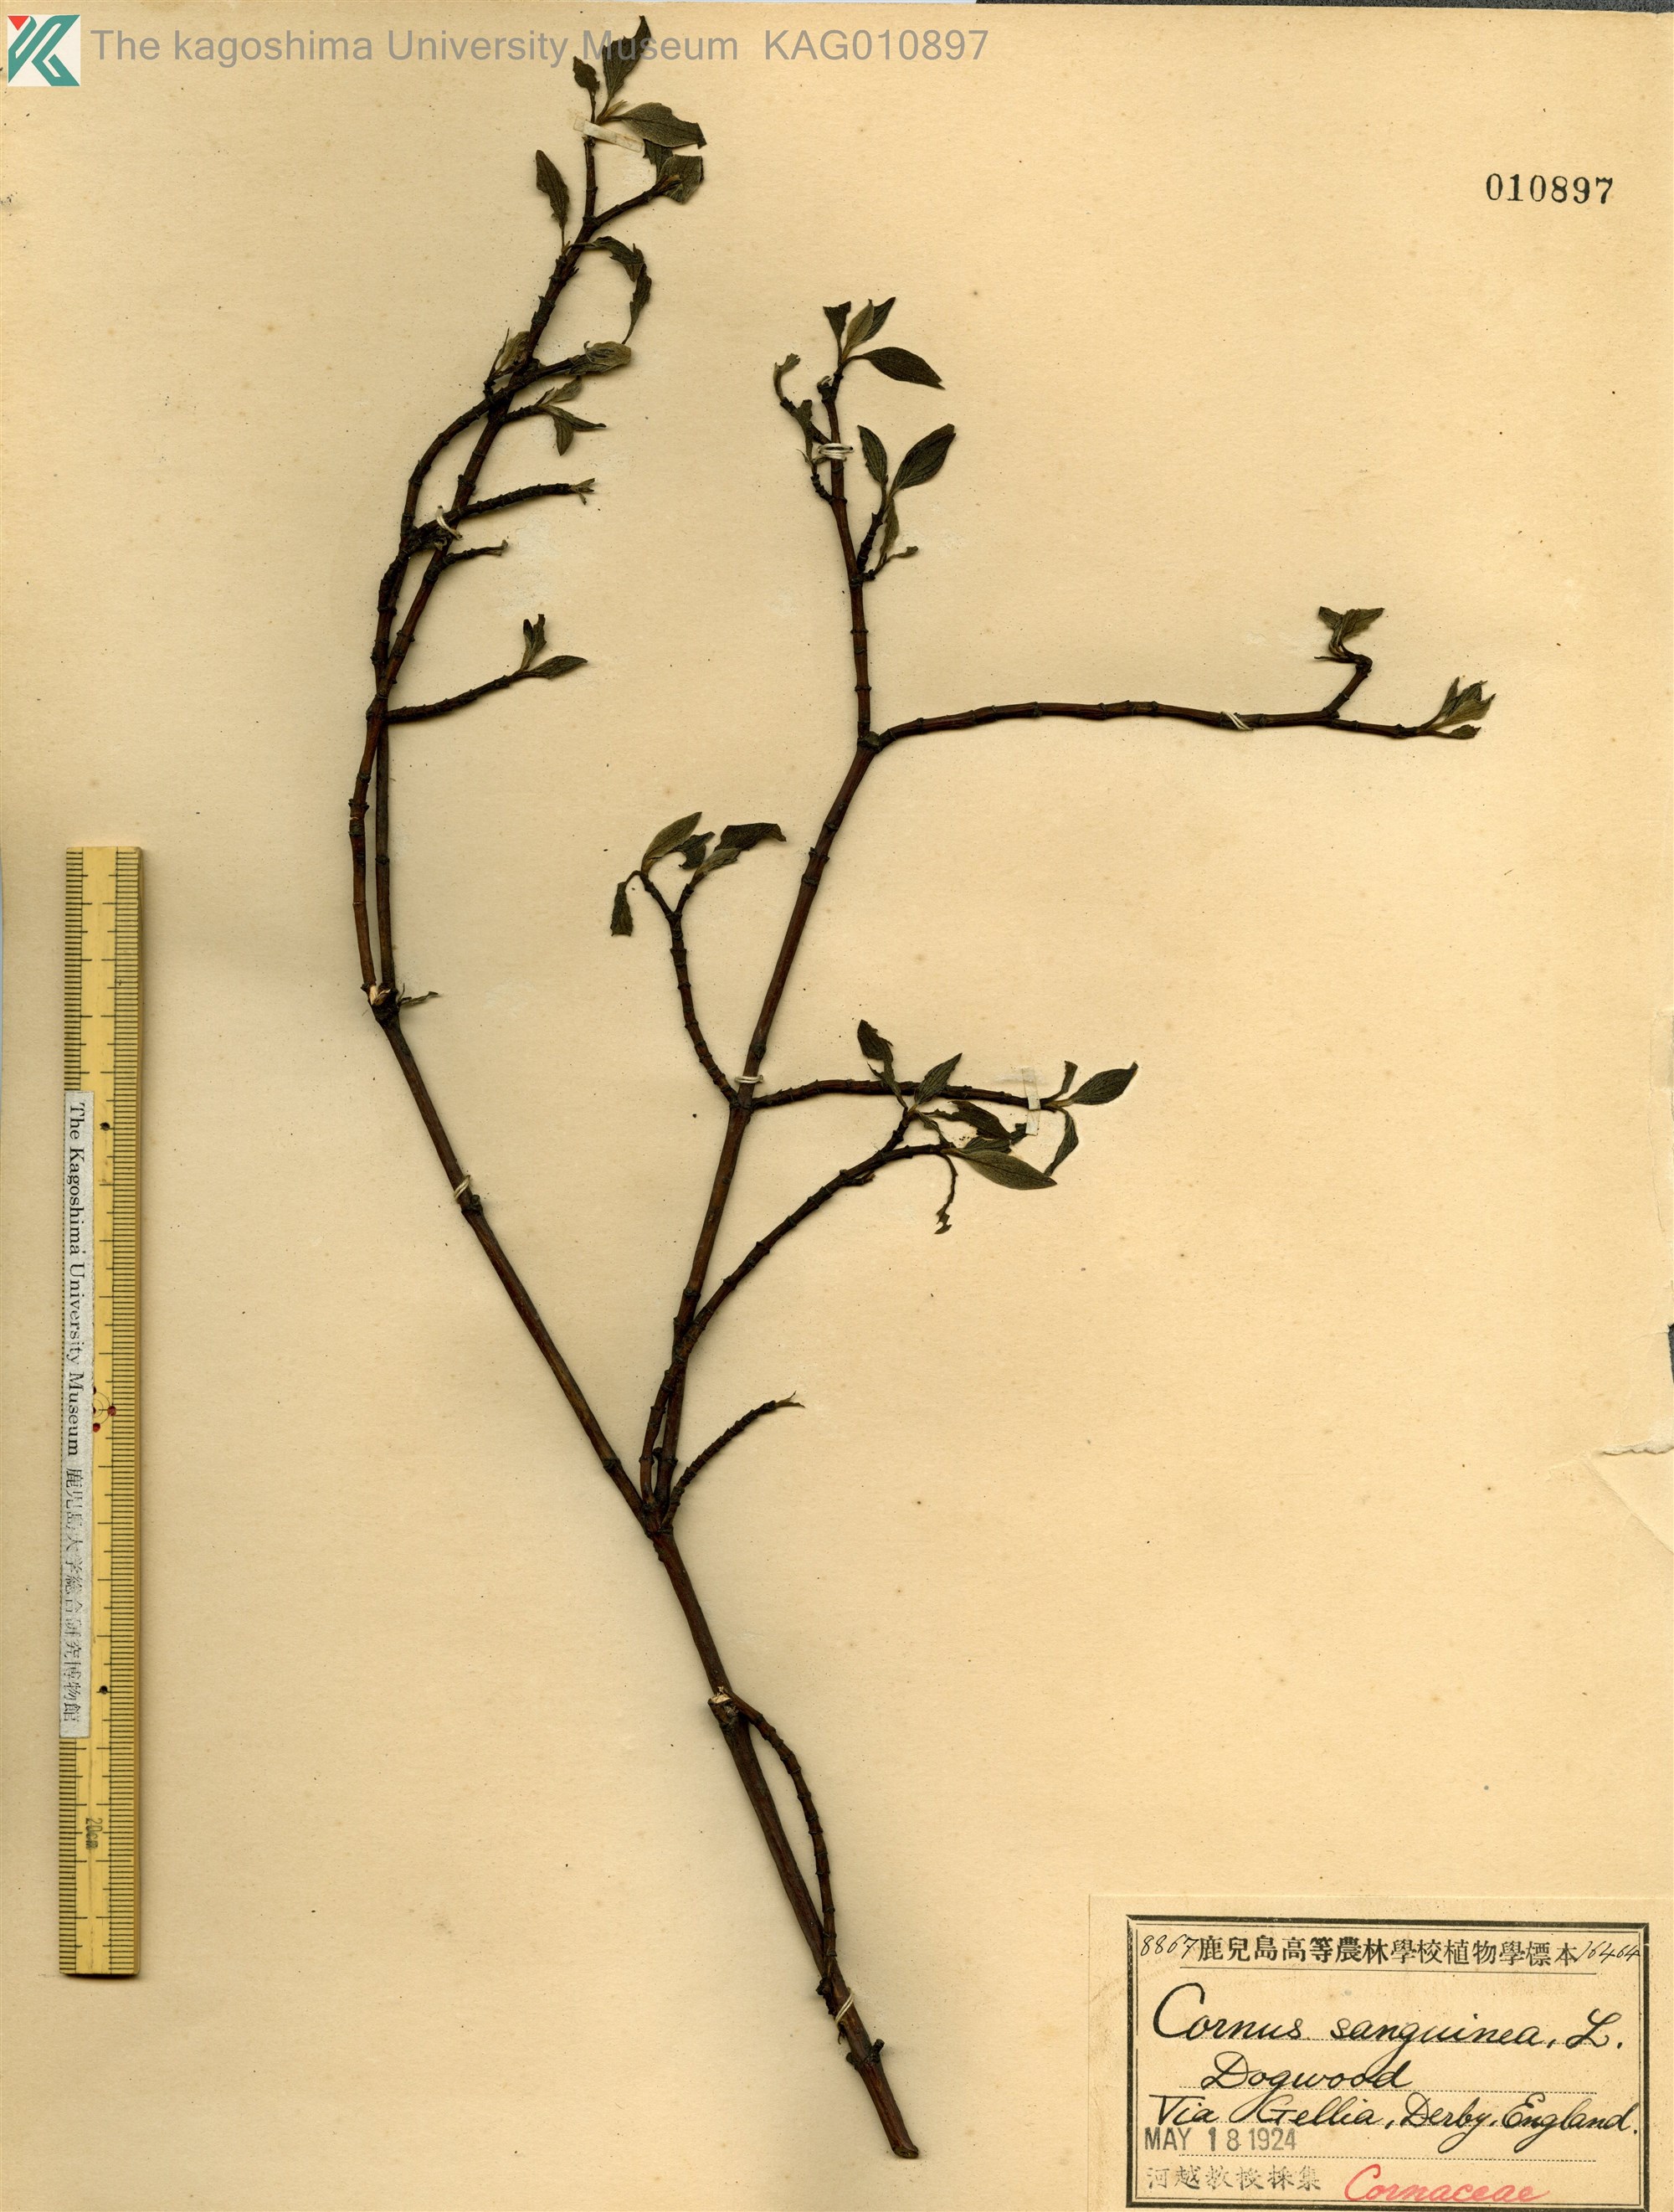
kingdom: Plantae
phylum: Tracheophyta
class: Magnoliopsida
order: Cornales
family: Cornaceae
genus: Cornus
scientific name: Cornus sanguinea
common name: Dogwood
